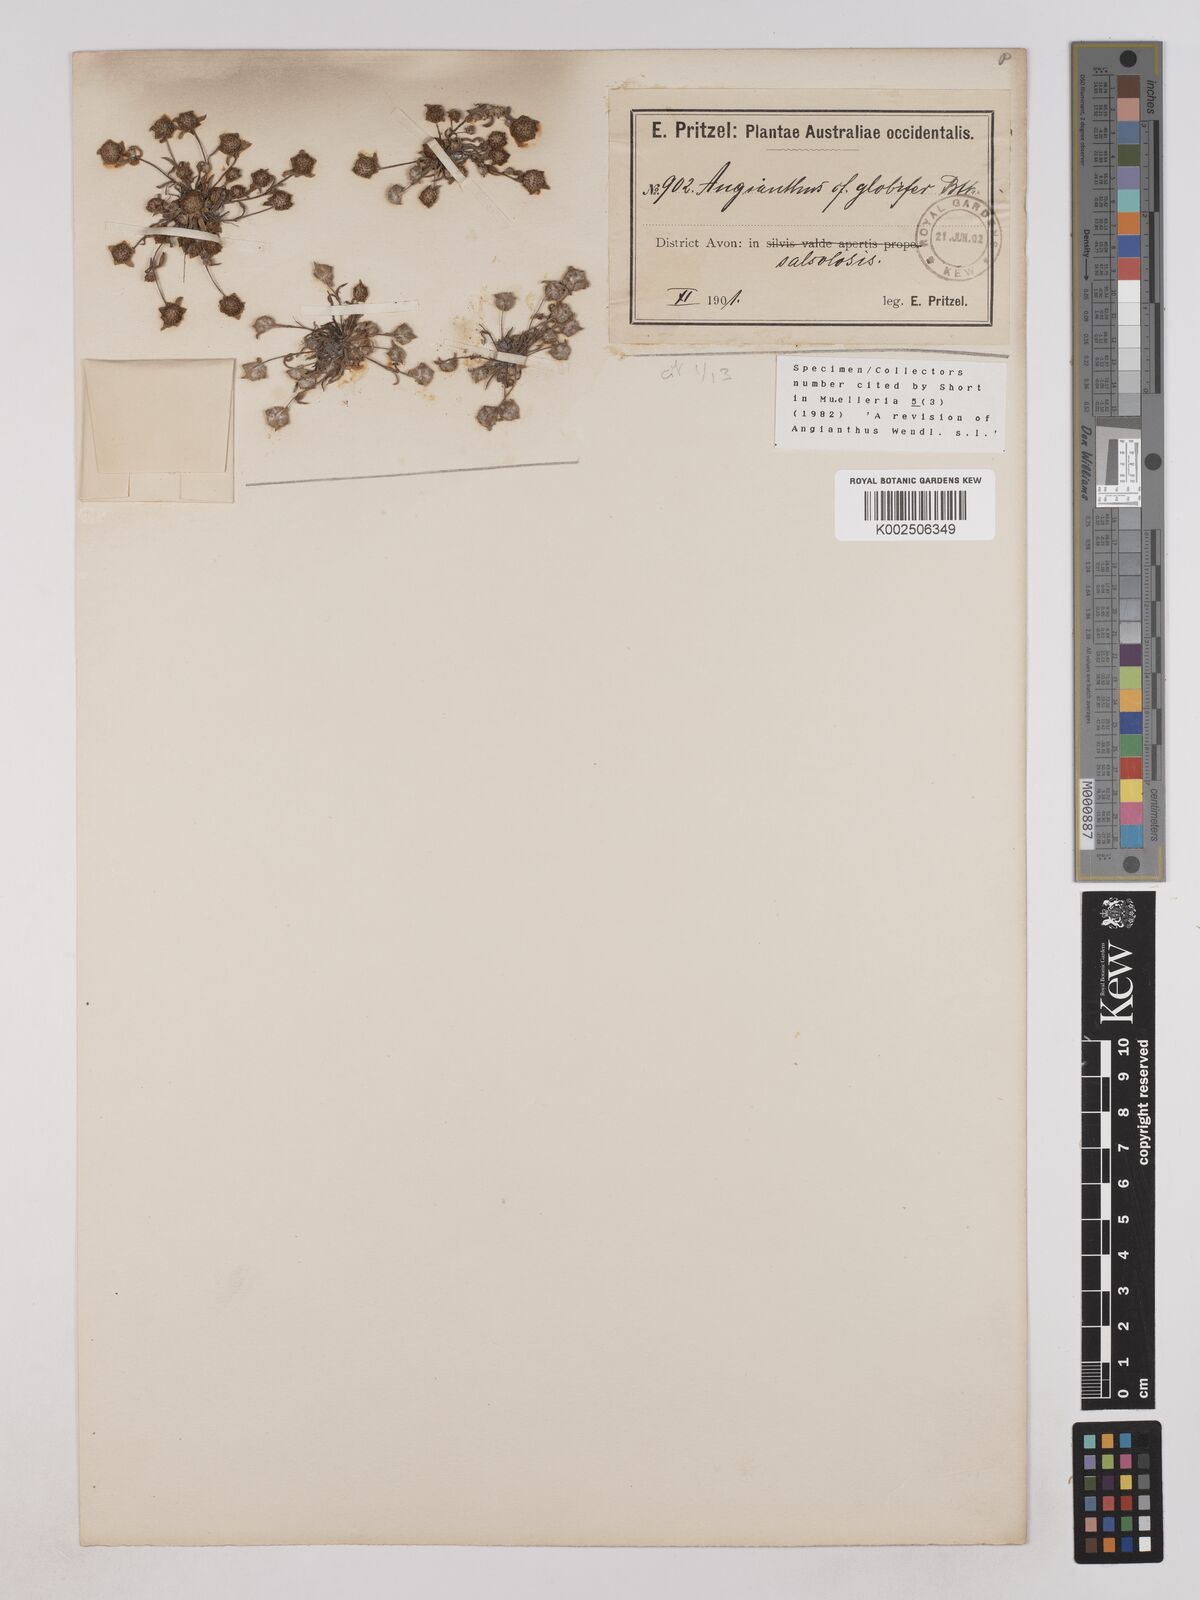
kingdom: Plantae
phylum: Tracheophyta
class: Magnoliopsida
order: Asterales
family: Asteraceae
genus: Angianthus
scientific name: Angianthus pygmaeus
